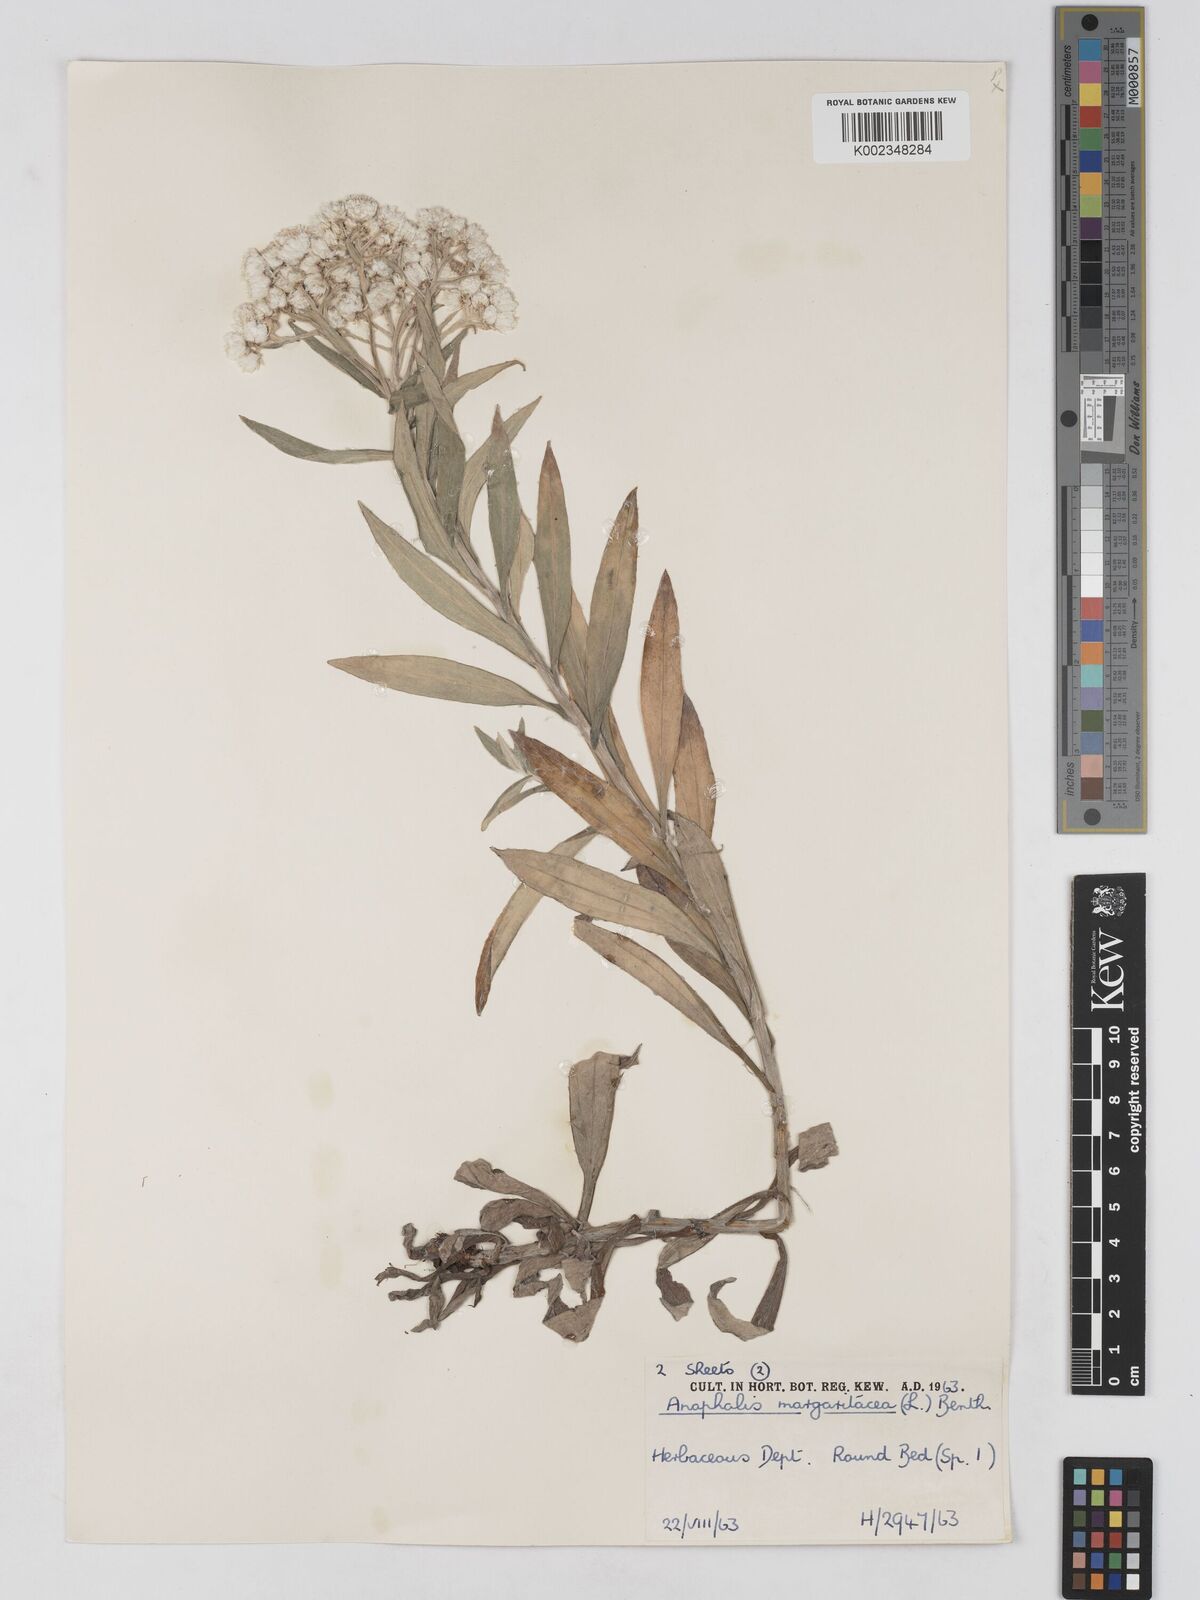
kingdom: Plantae
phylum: Tracheophyta
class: Magnoliopsida
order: Asterales
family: Asteraceae
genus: Anaphalis
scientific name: Anaphalis margaritacea
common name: Pearly everlasting
